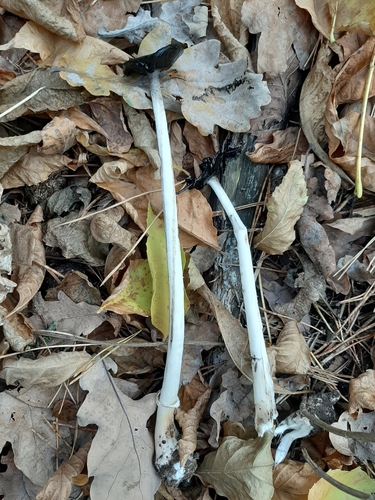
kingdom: Fungi
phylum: Basidiomycota
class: Agaricomycetes
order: Agaricales
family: Psathyrellaceae
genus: Coprinopsis
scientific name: Coprinopsis picacea
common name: Magpie inkcap
